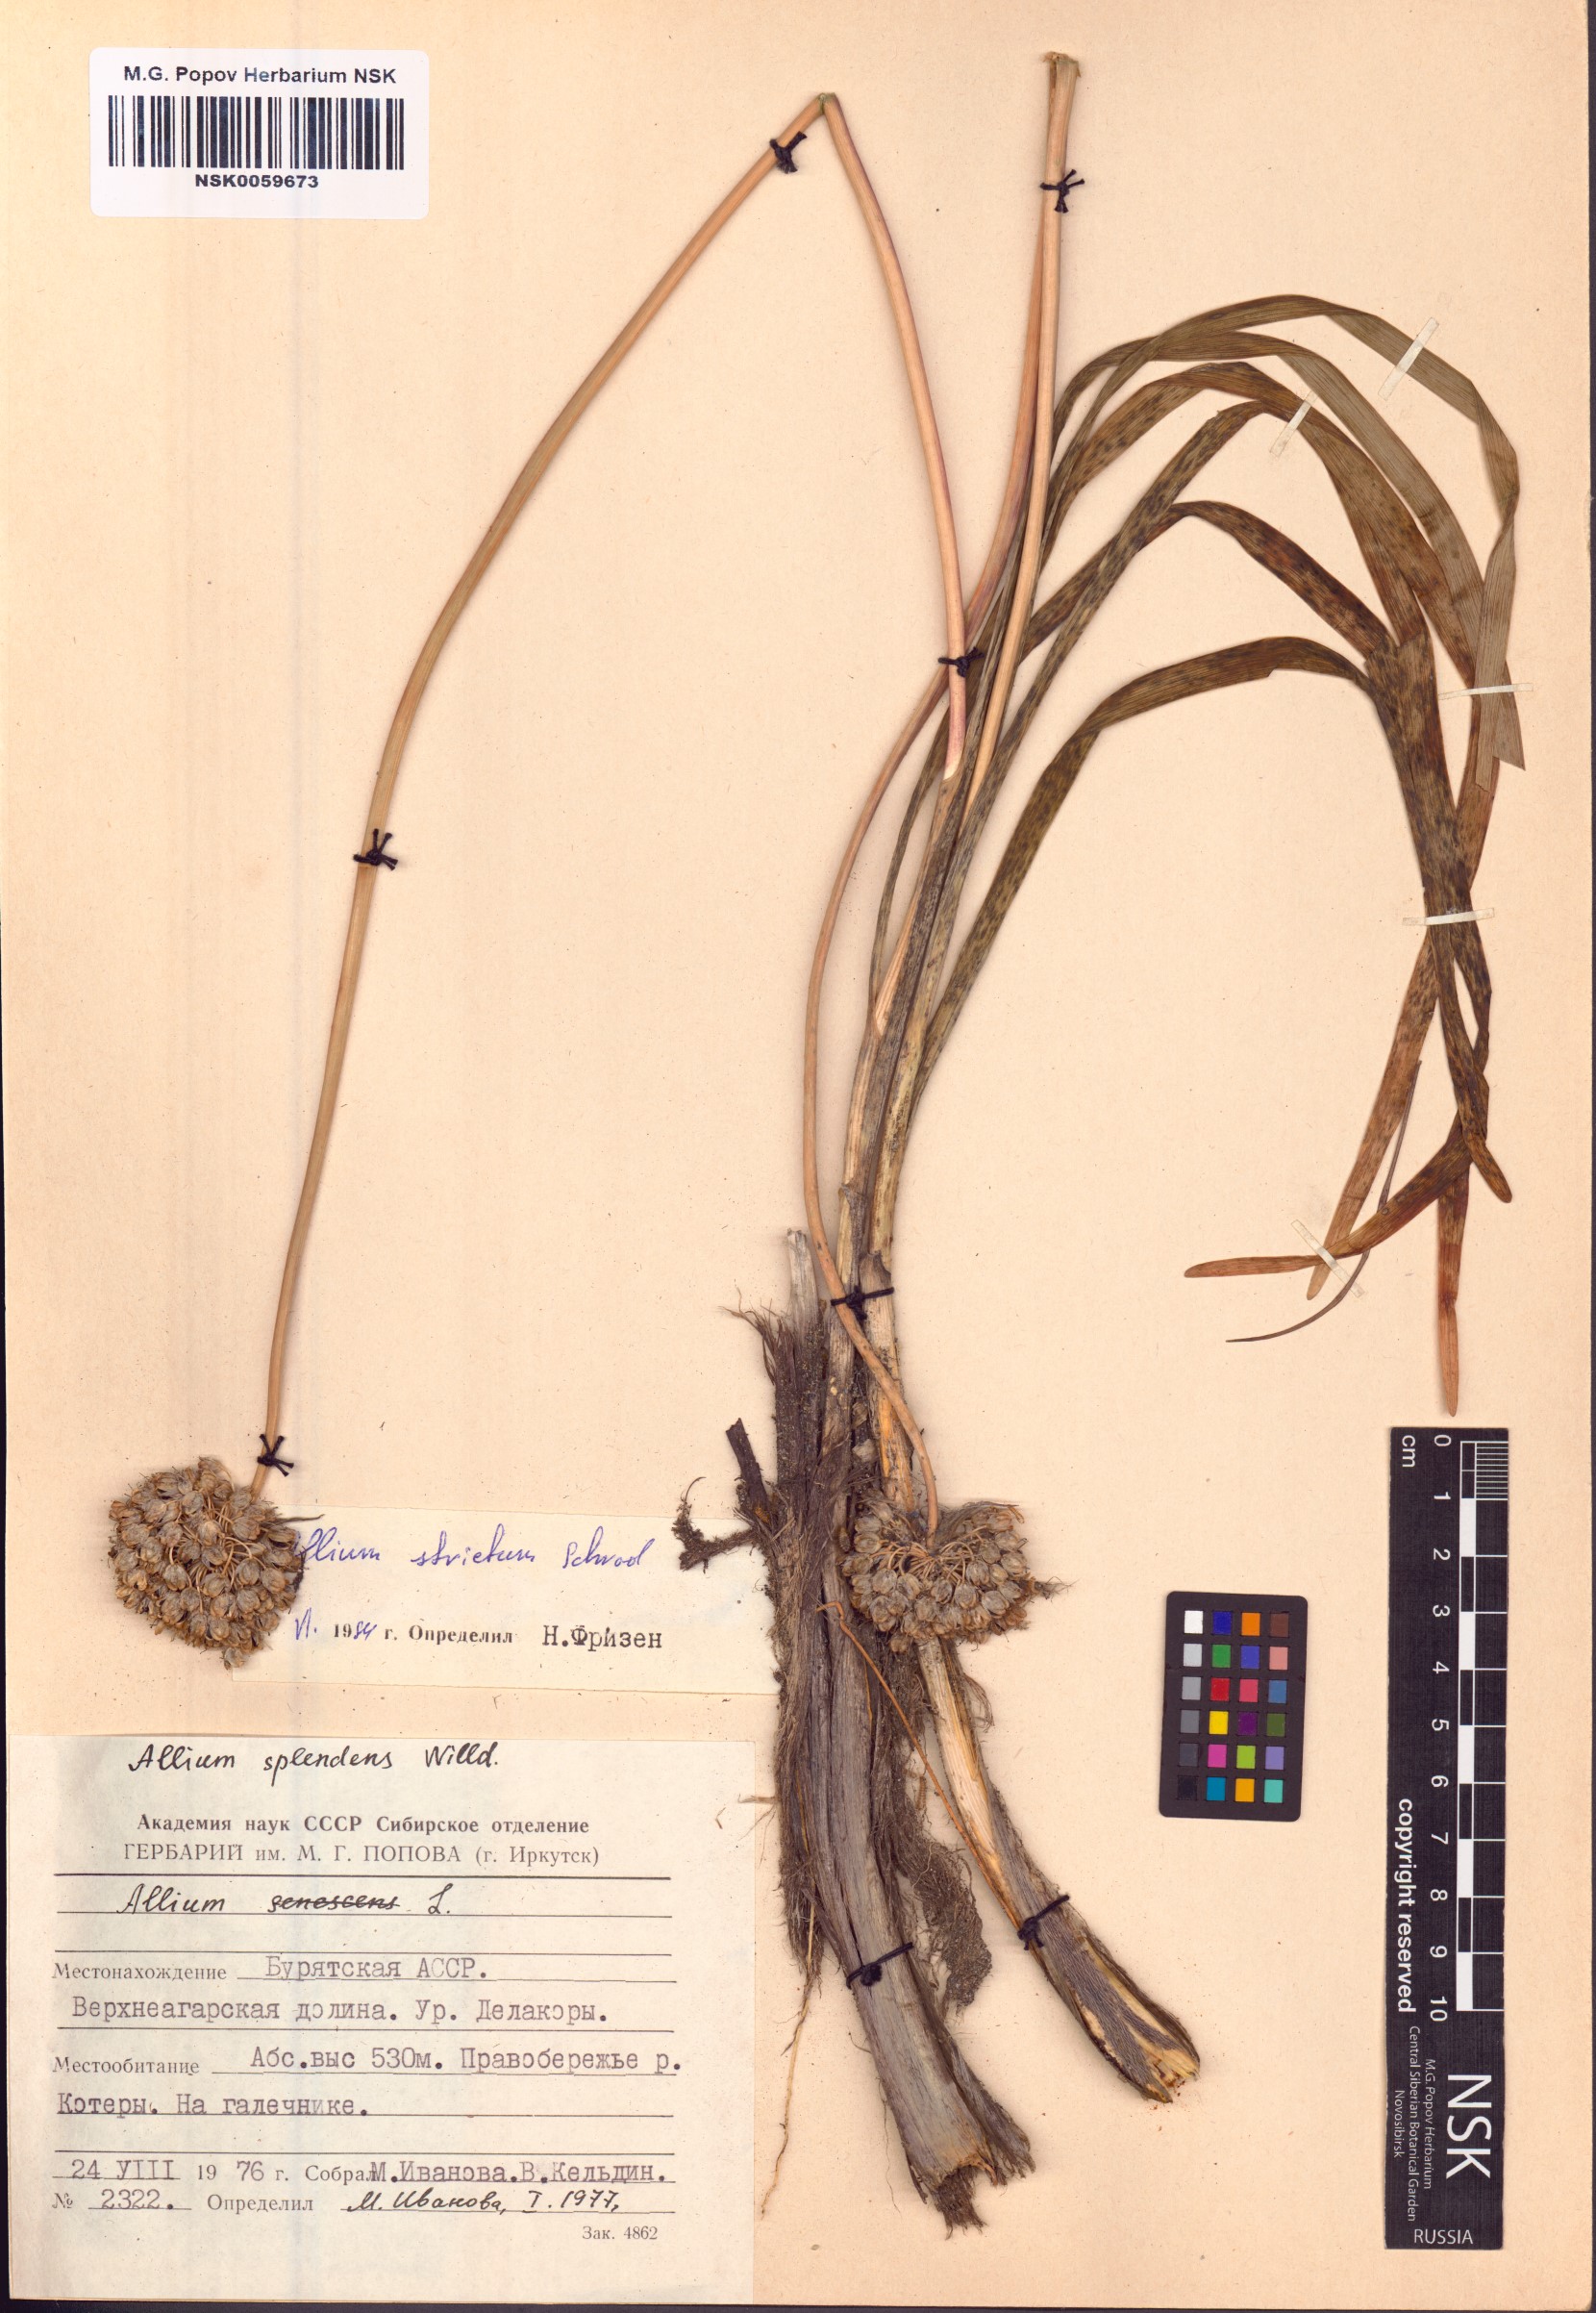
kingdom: Plantae
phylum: Tracheophyta
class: Liliopsida
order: Asparagales
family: Amaryllidaceae
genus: Allium
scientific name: Allium strictum
